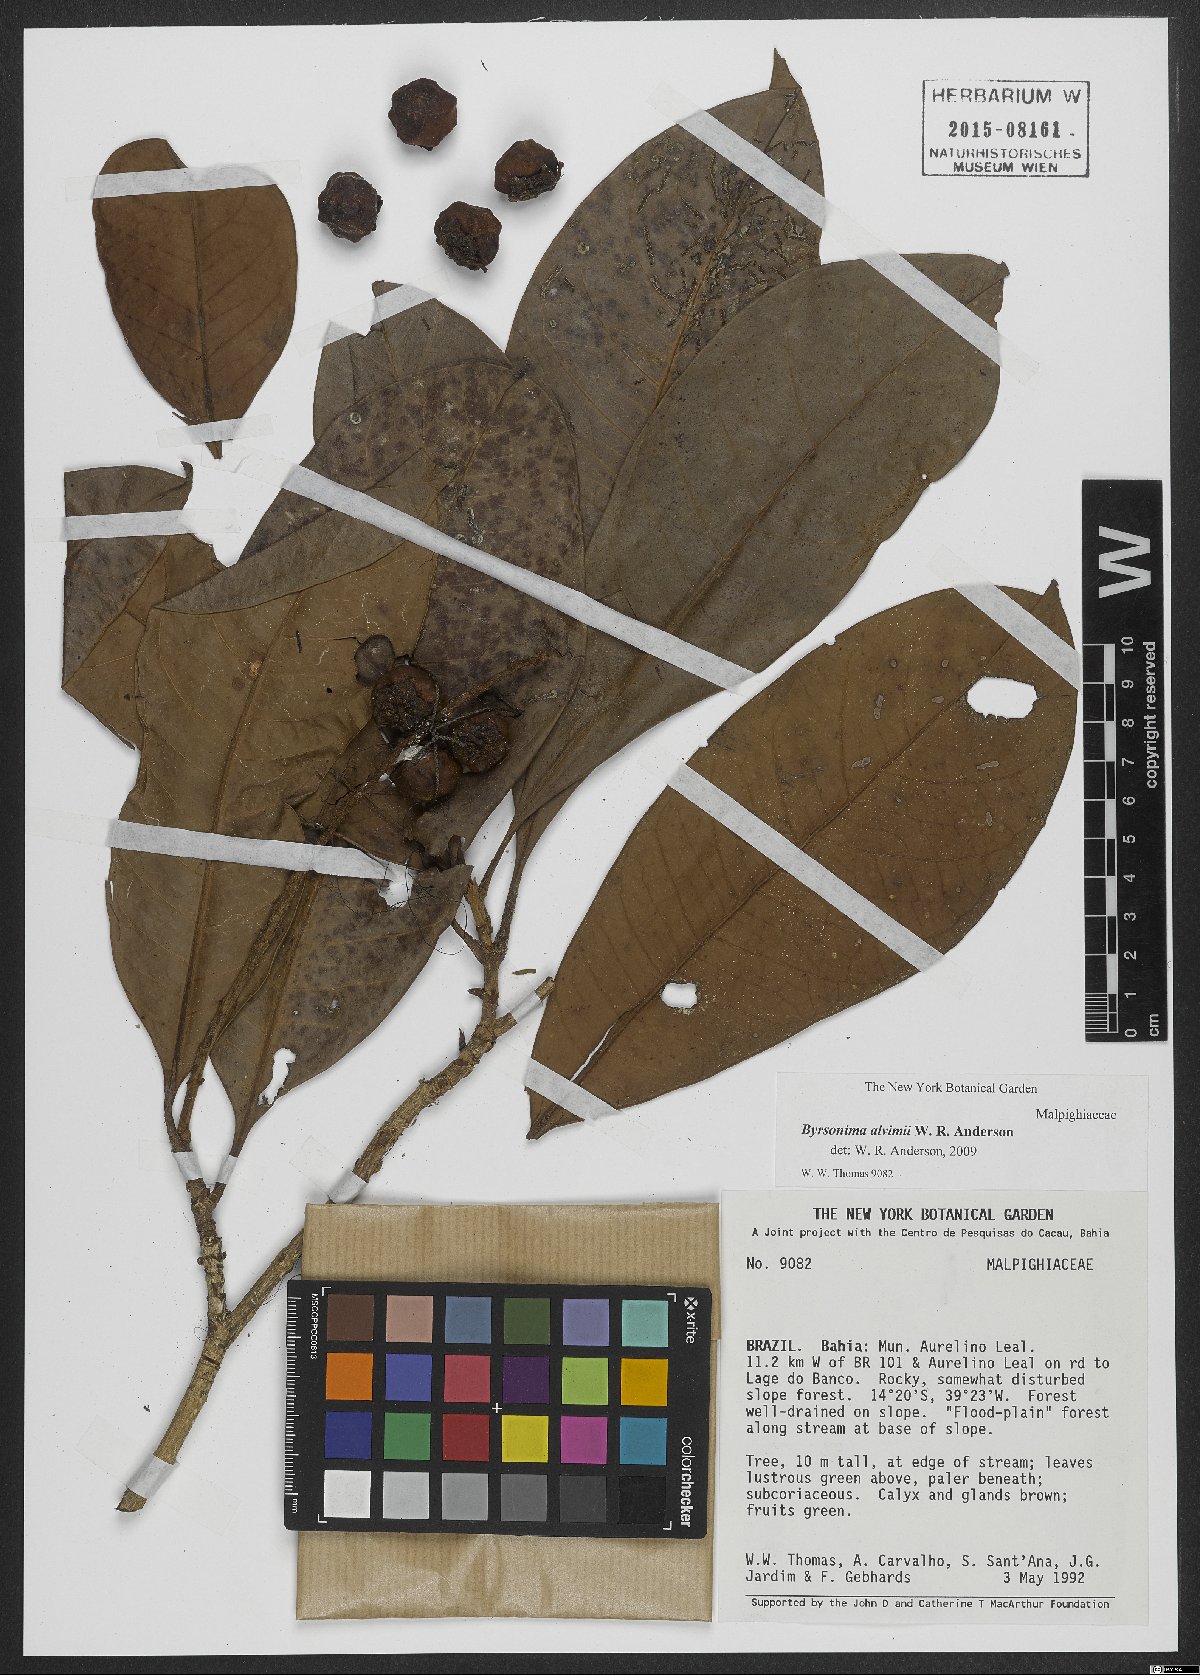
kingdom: Plantae
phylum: Tracheophyta
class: Magnoliopsida
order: Malpighiales
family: Malpighiaceae
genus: Byrsonima
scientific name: Byrsonima alvimii
